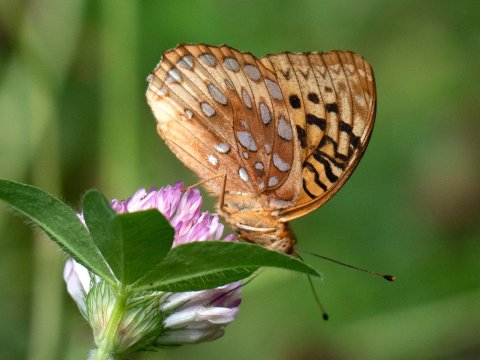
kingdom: Animalia
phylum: Arthropoda
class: Insecta
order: Lepidoptera
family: Nymphalidae
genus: Speyeria
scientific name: Speyeria cybele
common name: Great Spangled Fritillary
